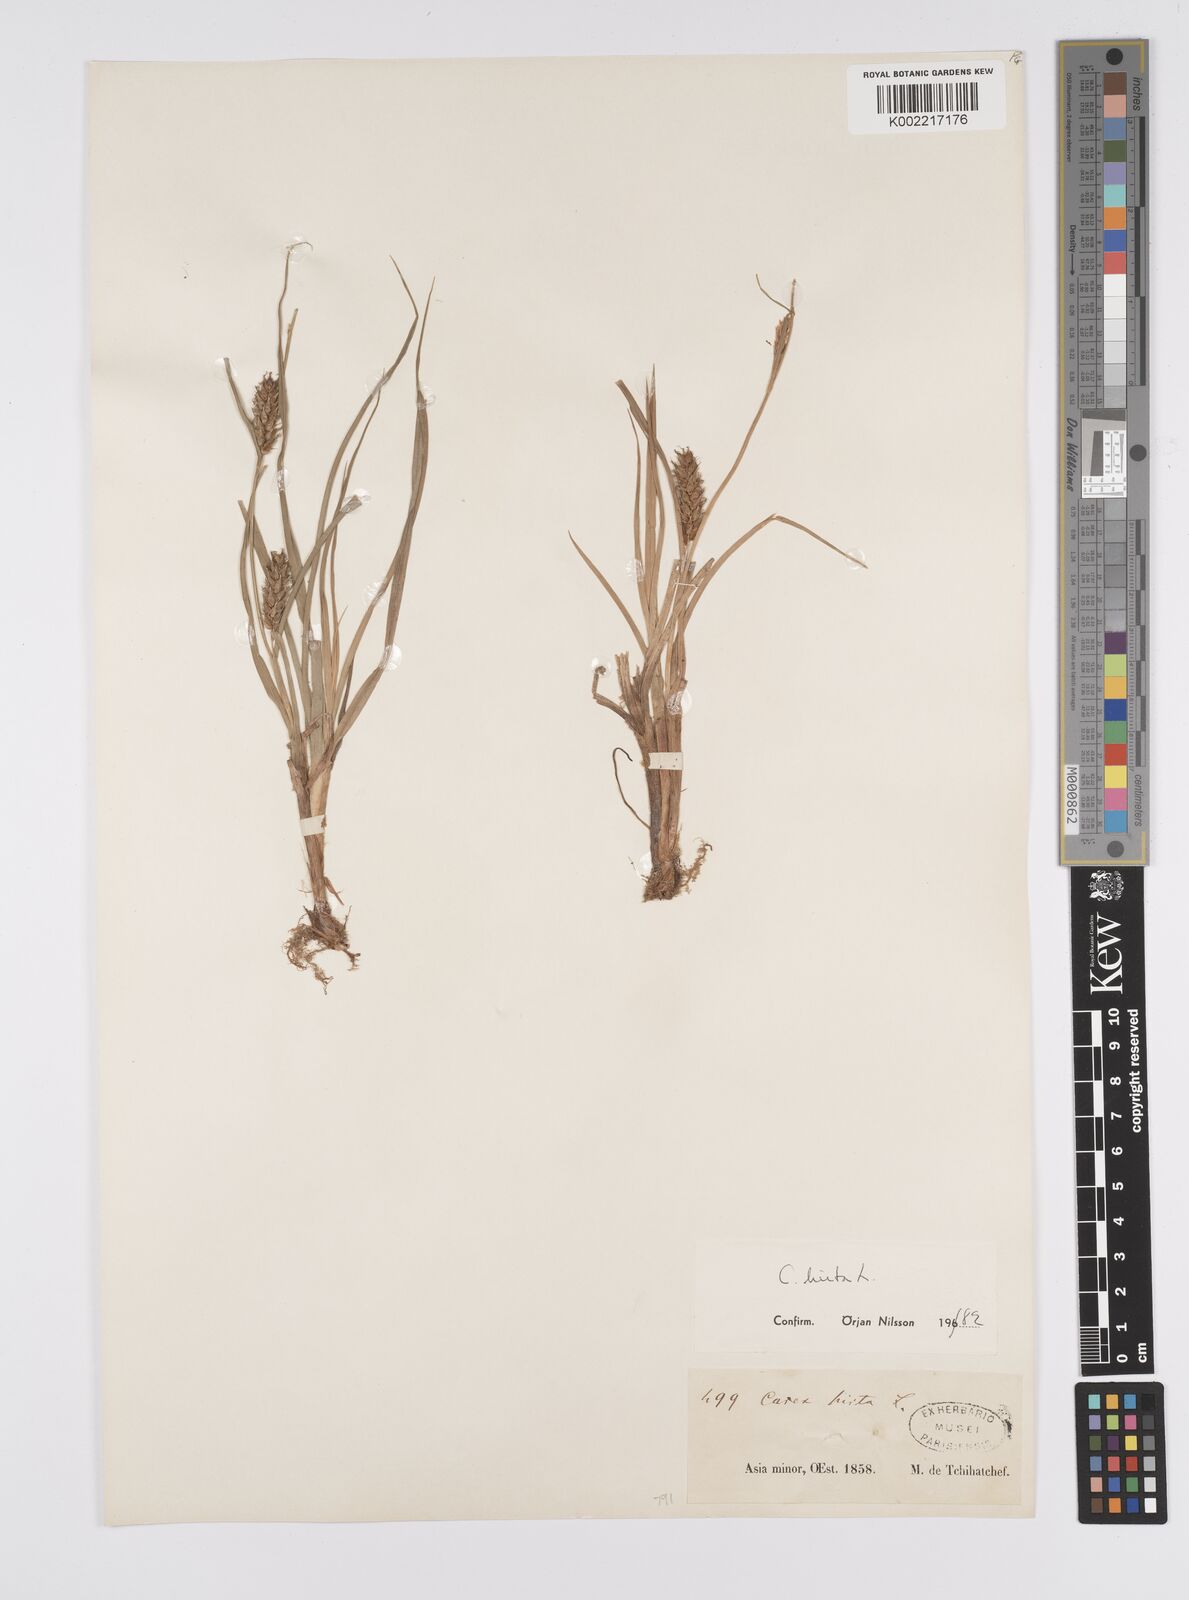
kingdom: Plantae
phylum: Tracheophyta
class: Liliopsida
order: Poales
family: Cyperaceae
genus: Carex
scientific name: Carex hirta
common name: Hairy sedge
